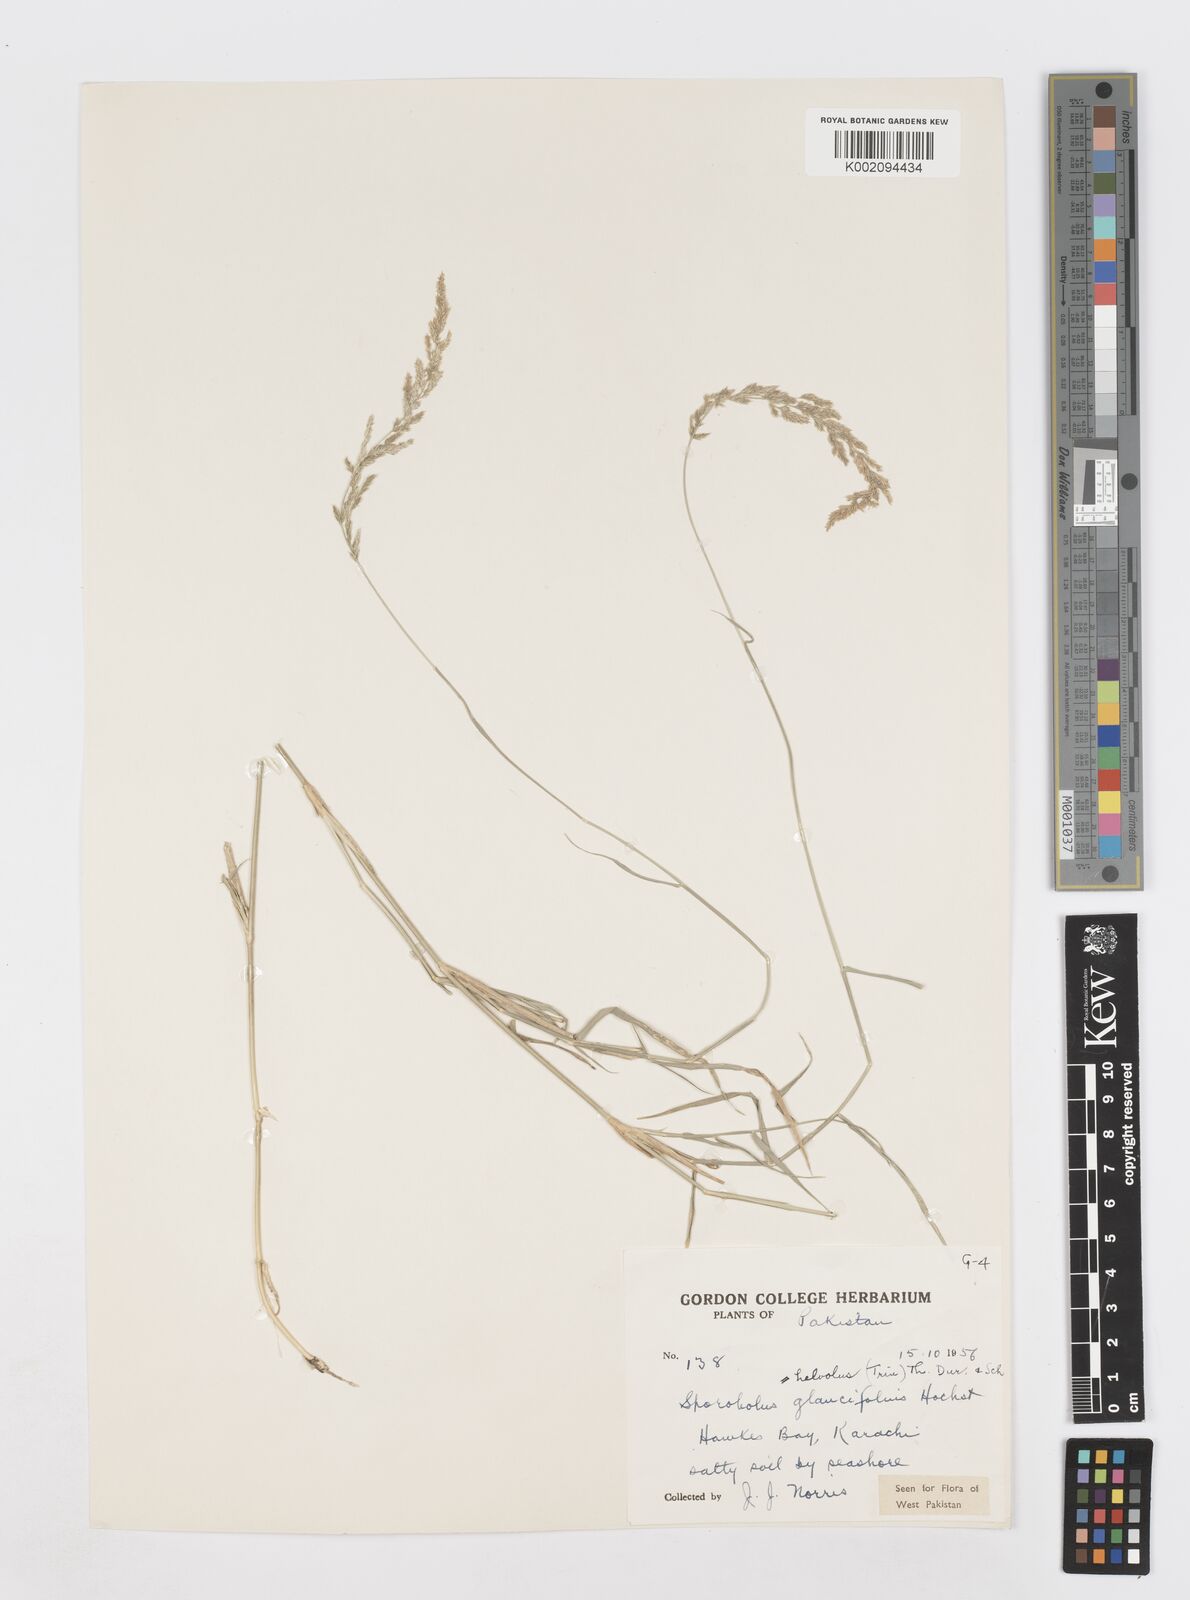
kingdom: Plantae
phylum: Tracheophyta
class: Liliopsida
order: Poales
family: Poaceae
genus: Sporobolus
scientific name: Sporobolus helvolus
